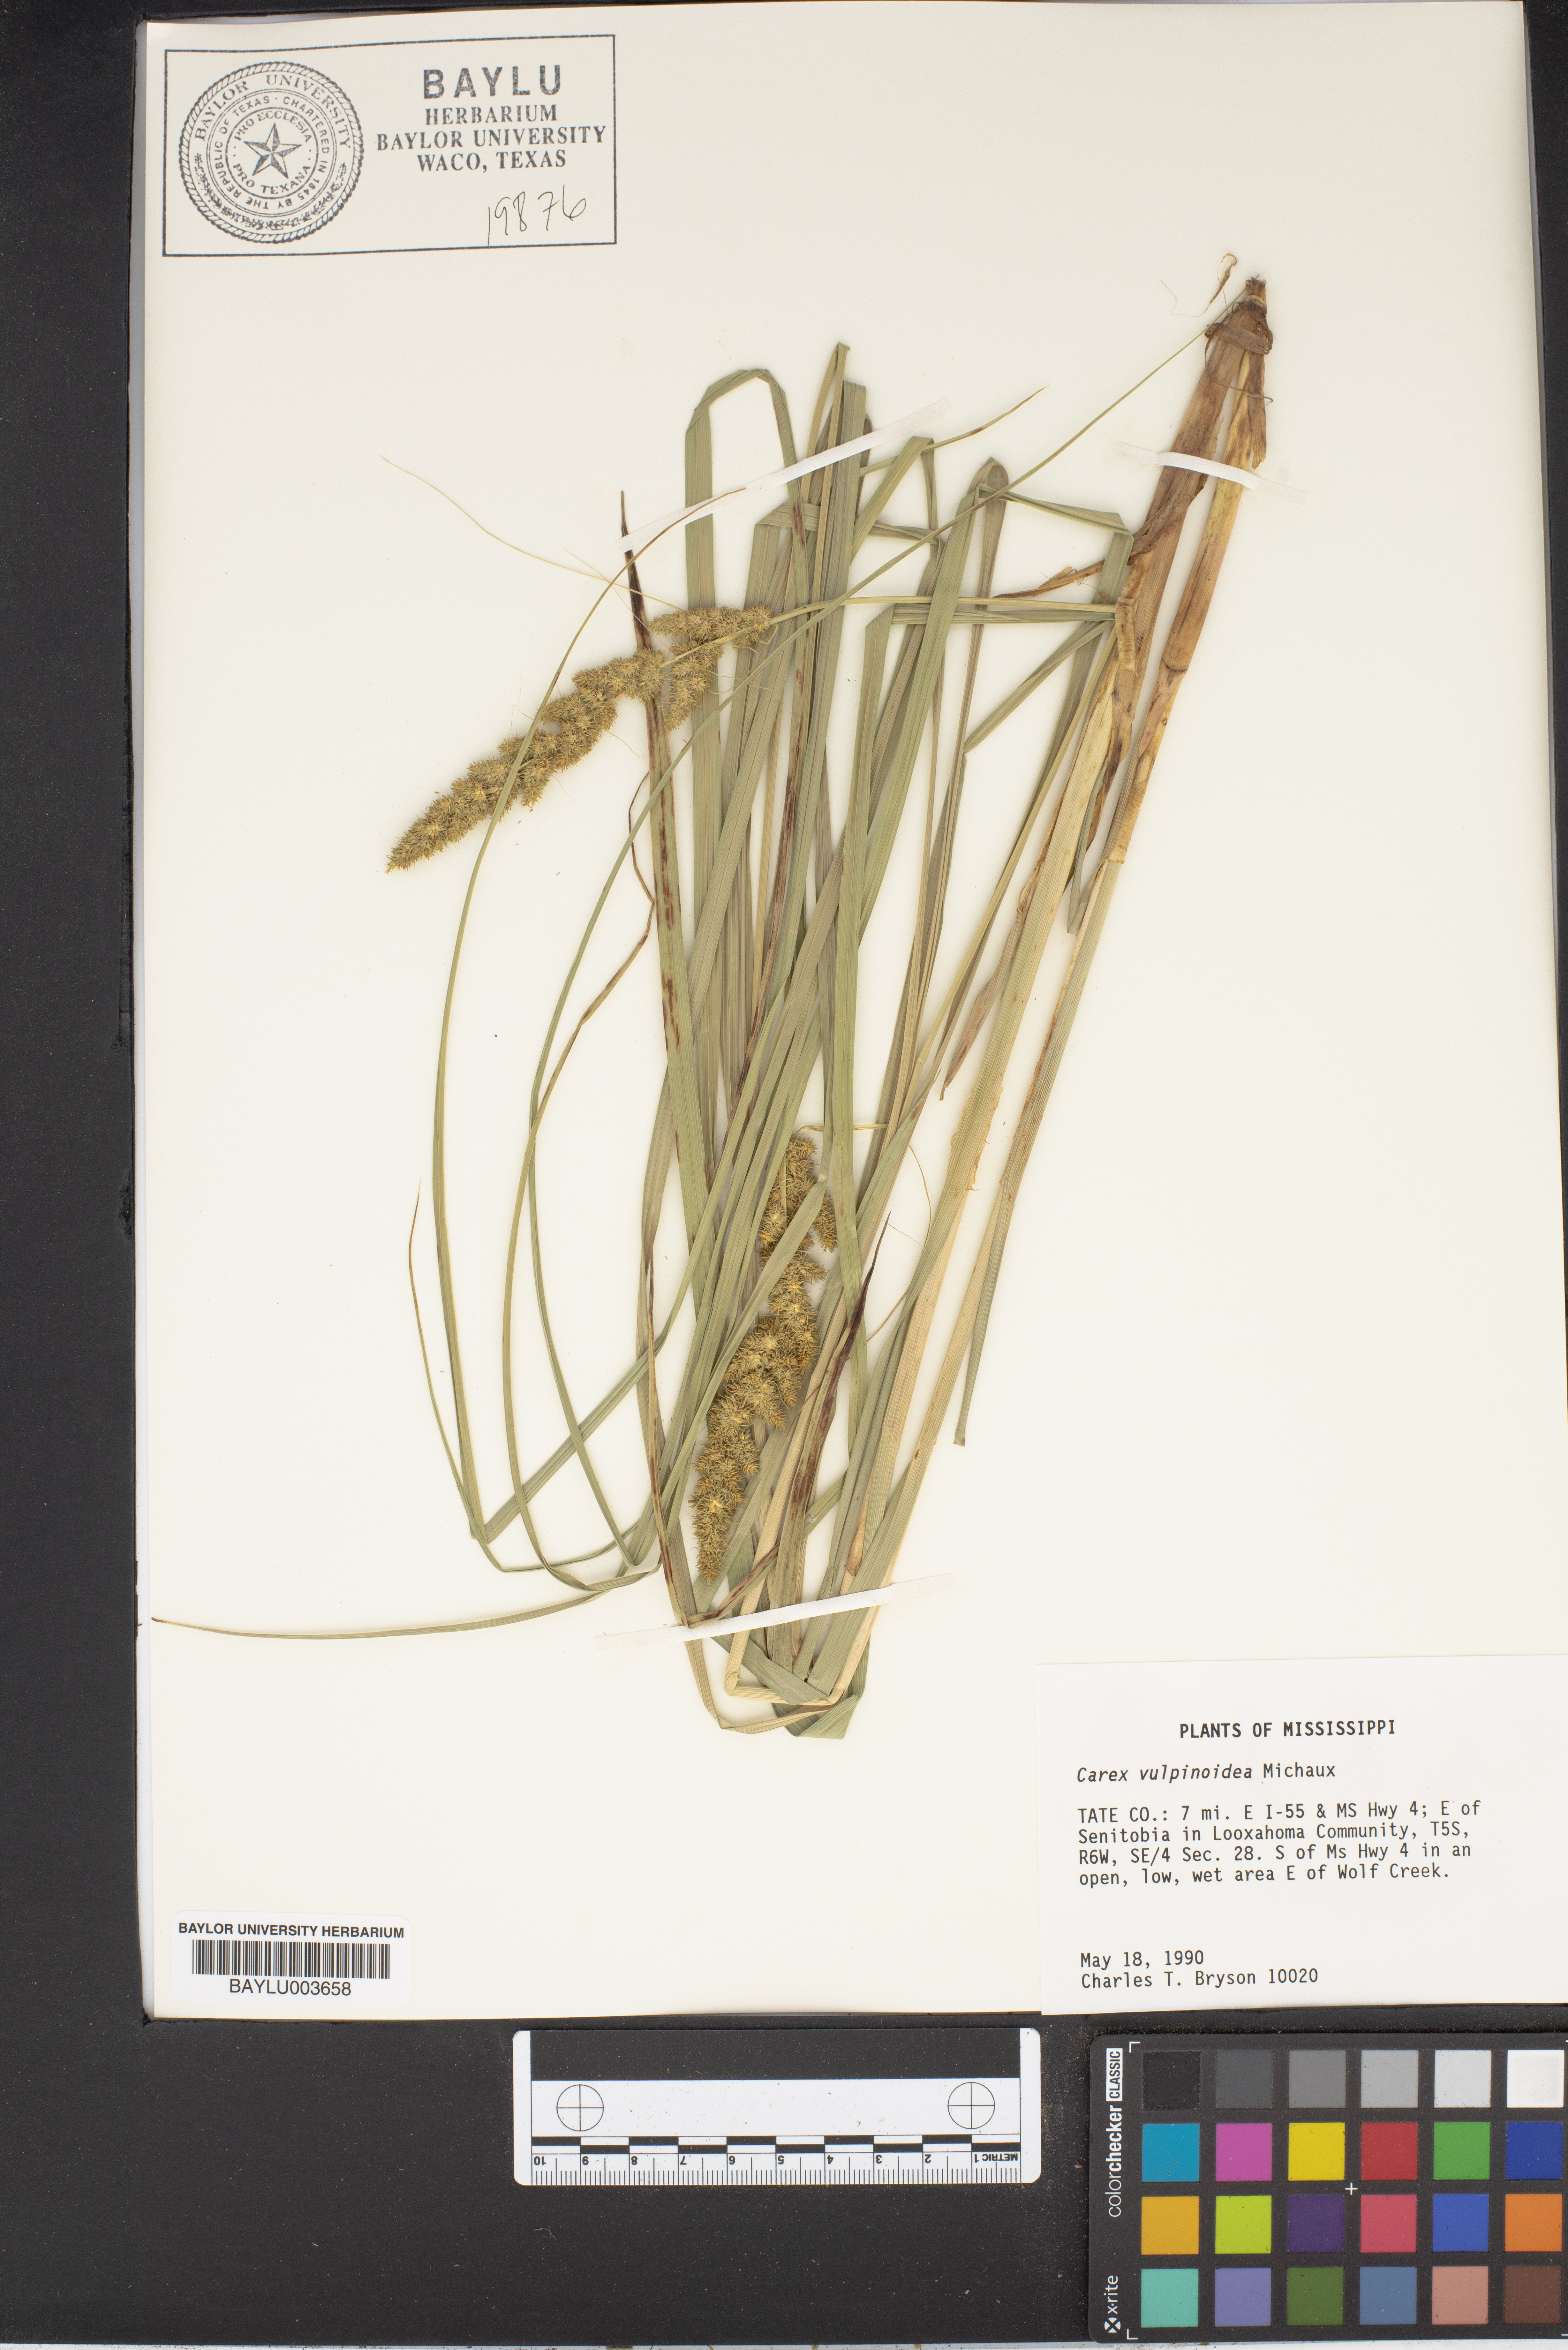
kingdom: Plantae
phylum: Tracheophyta
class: Liliopsida
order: Poales
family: Cyperaceae
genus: Carex
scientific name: Carex vulpinoidea
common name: American fox-sedge
